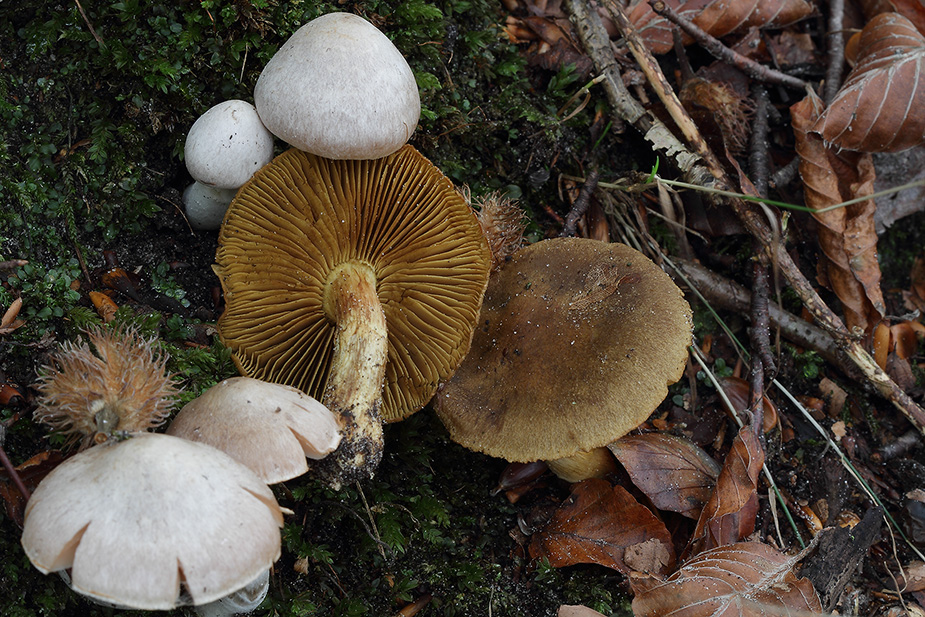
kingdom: Fungi
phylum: Basidiomycota
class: Agaricomycetes
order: Agaricales
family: Cortinariaceae
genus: Cortinarius
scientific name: Cortinarius venetus
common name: olivengrøn slørhat
